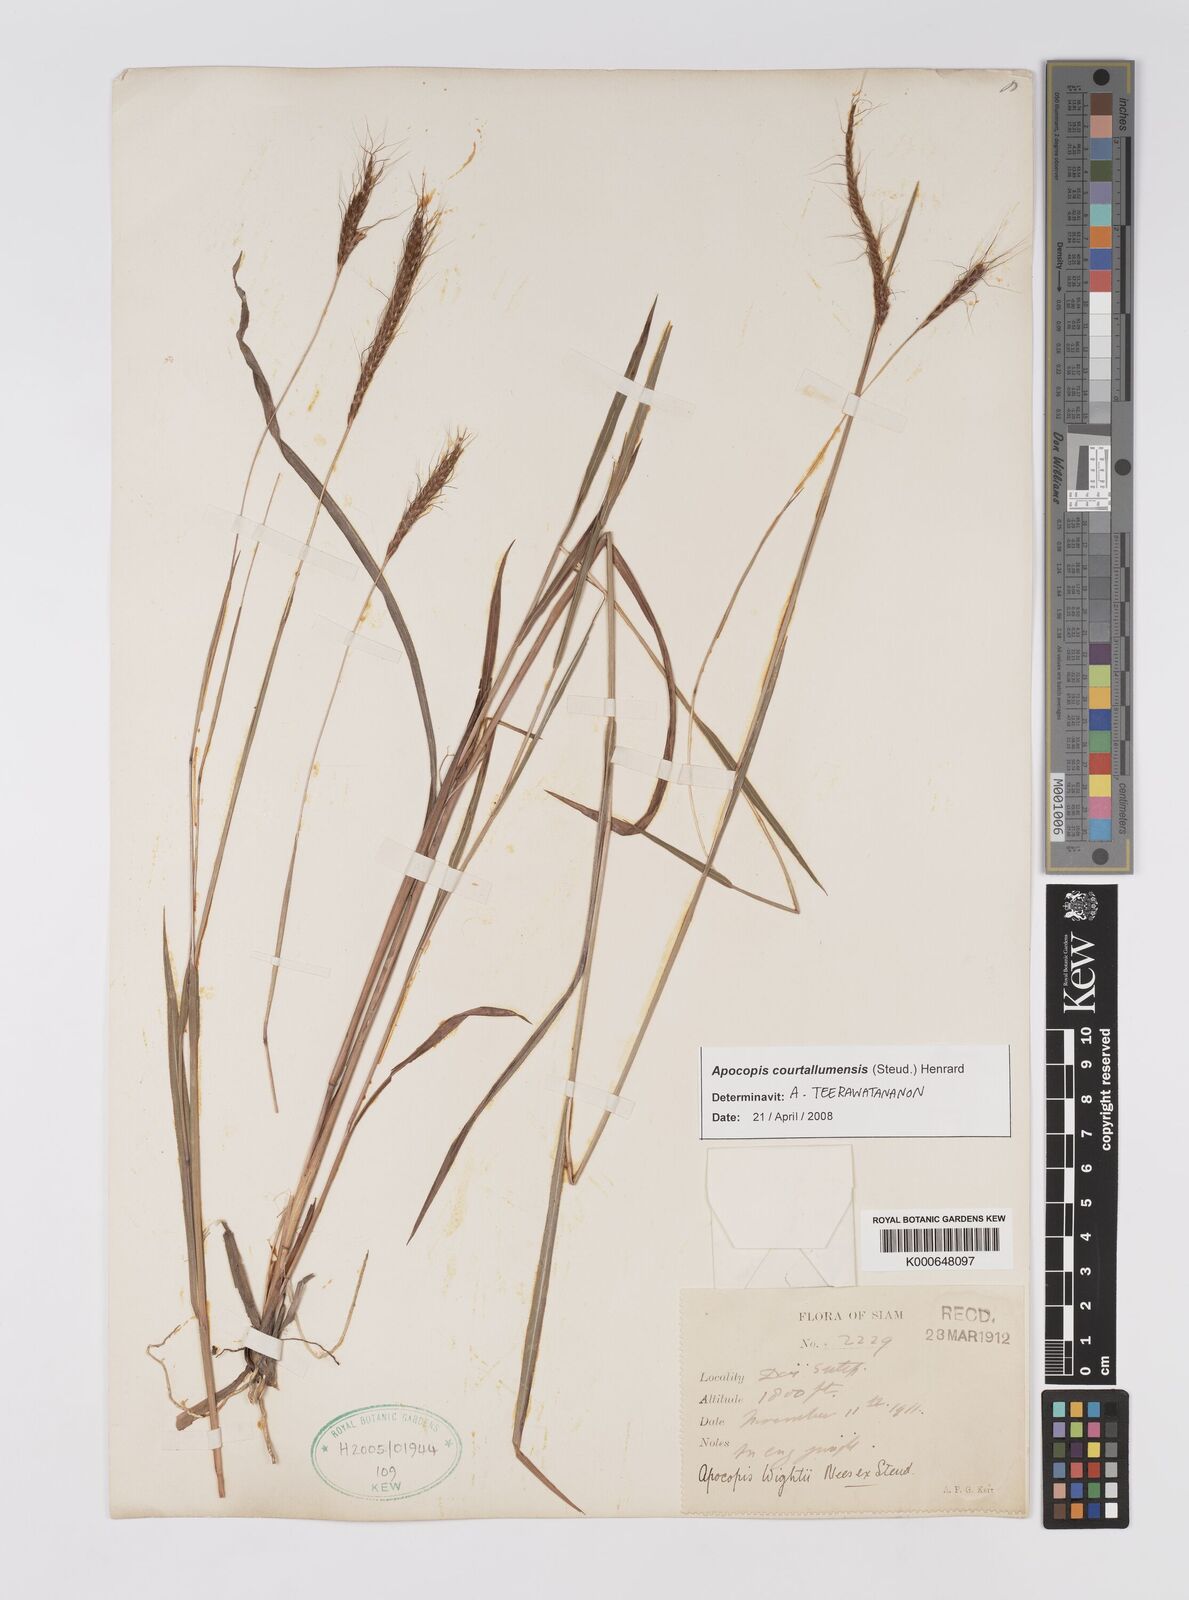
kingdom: Plantae
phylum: Tracheophyta
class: Liliopsida
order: Poales
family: Poaceae
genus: Apocopis
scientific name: Apocopis courtallumensis
